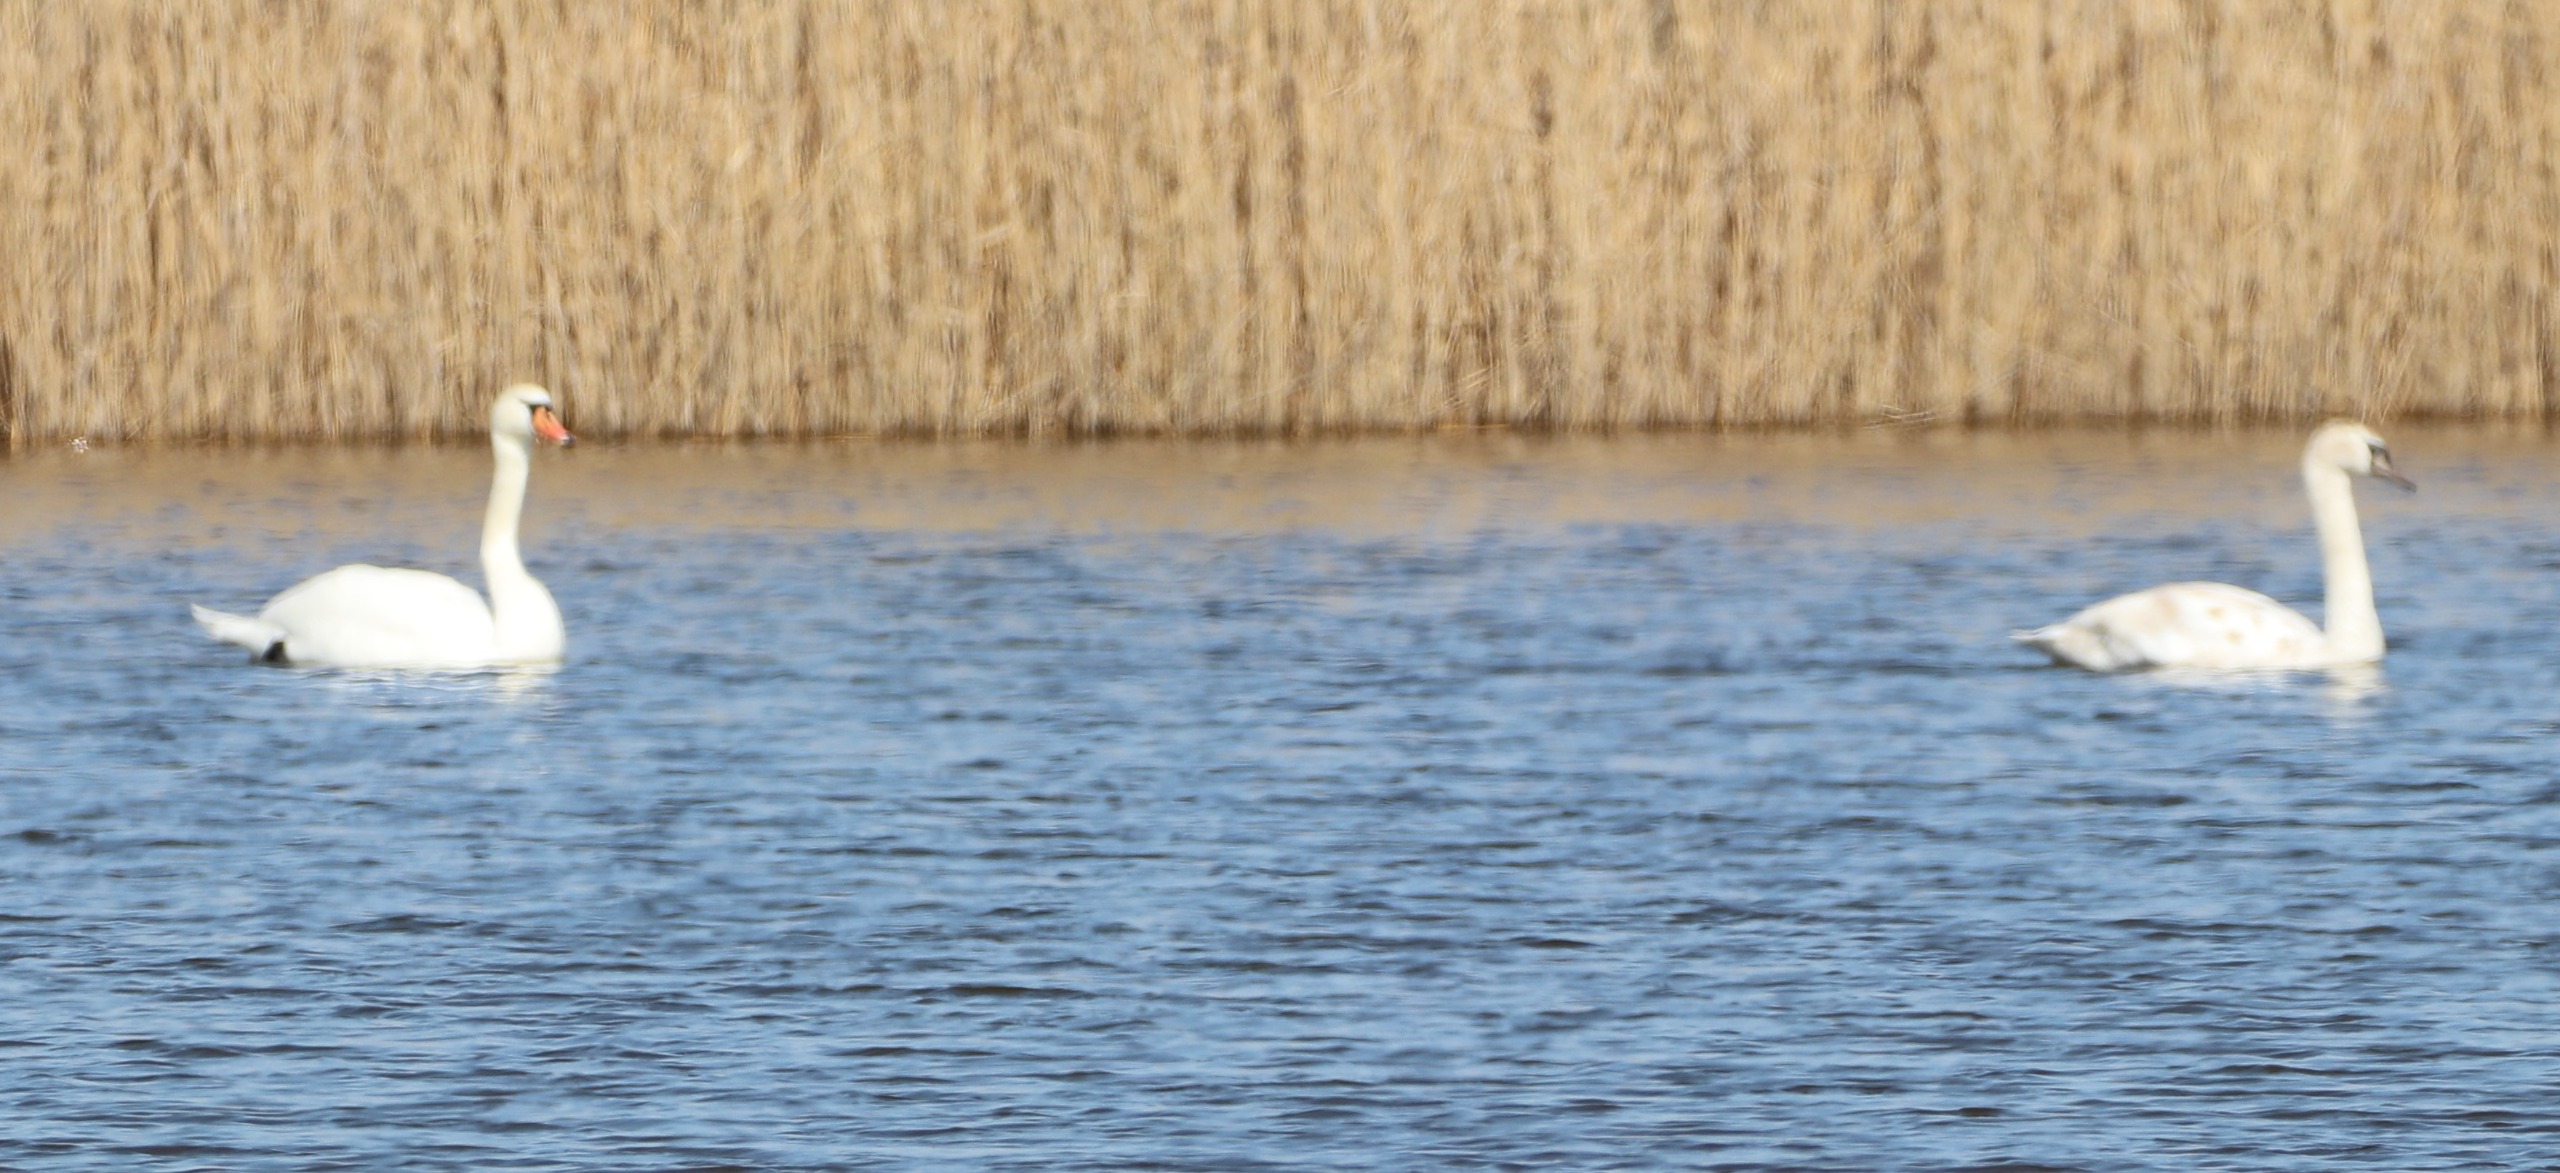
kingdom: Animalia
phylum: Chordata
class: Aves
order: Anseriformes
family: Anatidae
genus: Cygnus
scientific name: Cygnus olor
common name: Knopsvane
